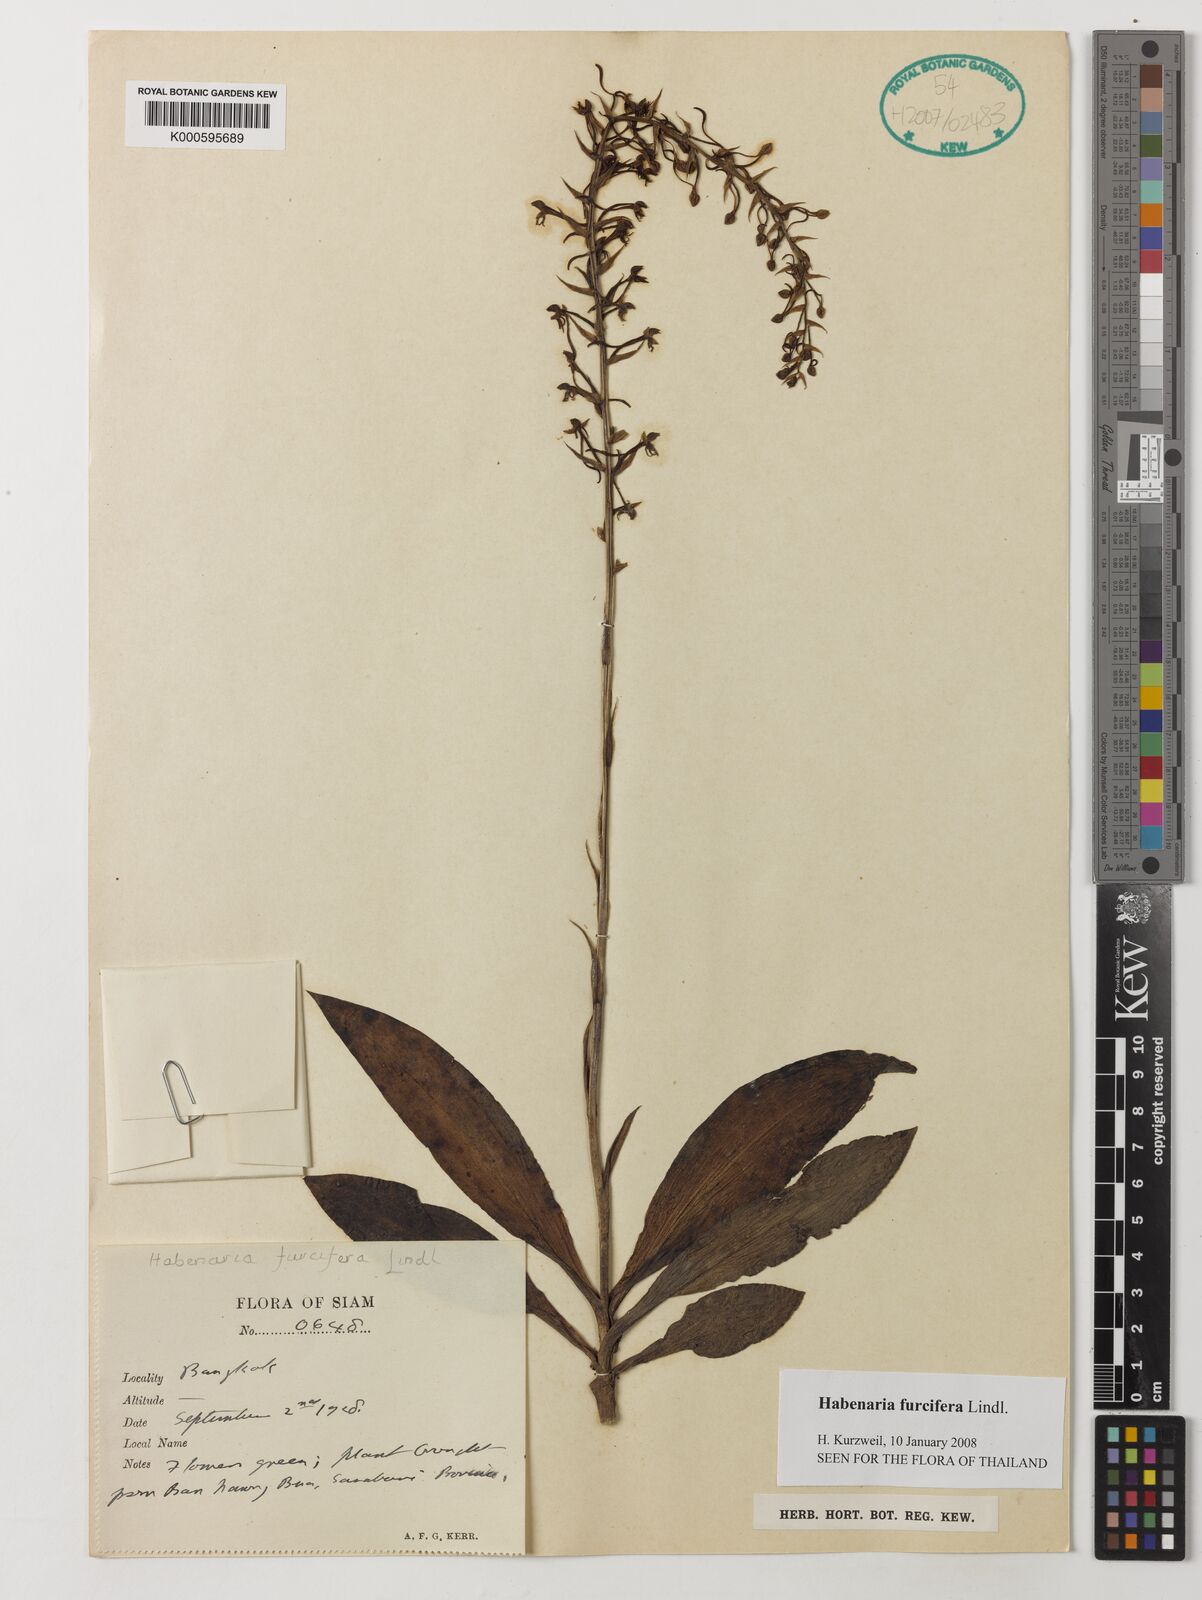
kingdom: Plantae
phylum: Tracheophyta
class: Liliopsida
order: Asparagales
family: Orchidaceae
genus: Habenaria
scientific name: Habenaria furcifera
